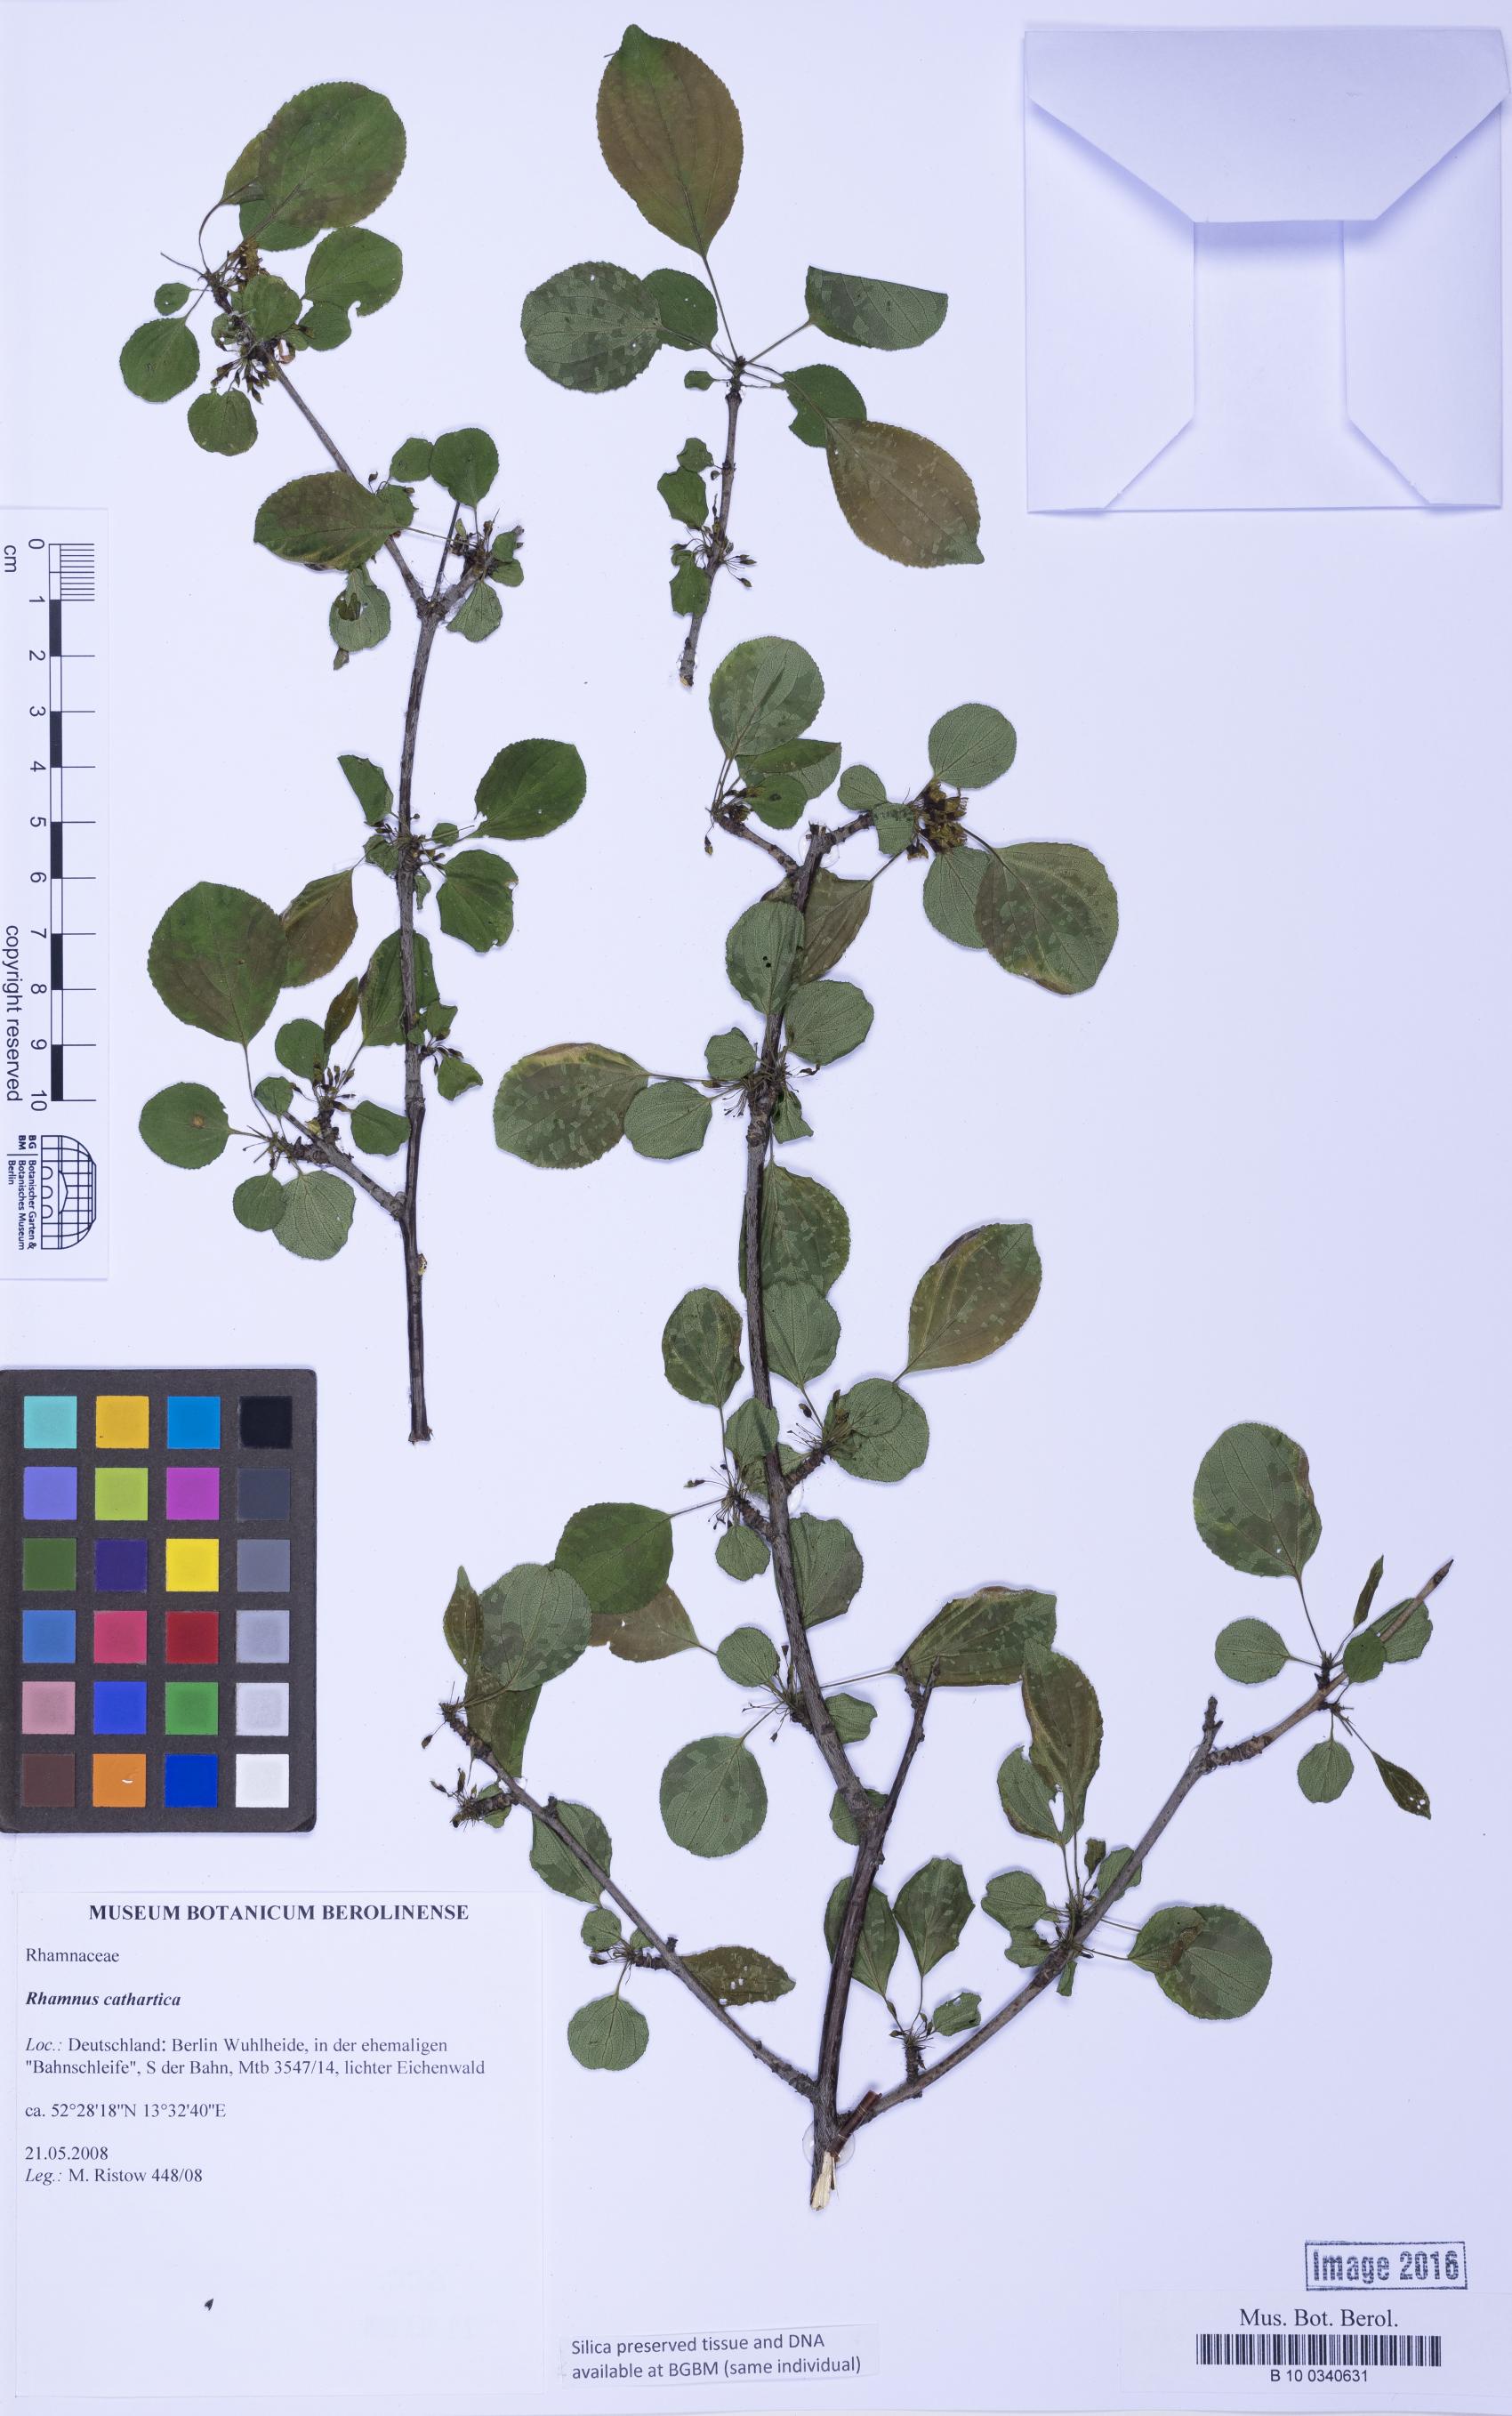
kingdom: Plantae
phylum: Tracheophyta
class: Magnoliopsida
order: Rosales
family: Rhamnaceae
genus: Rhamnus
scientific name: Rhamnus cathartica
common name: Common buckthorn
